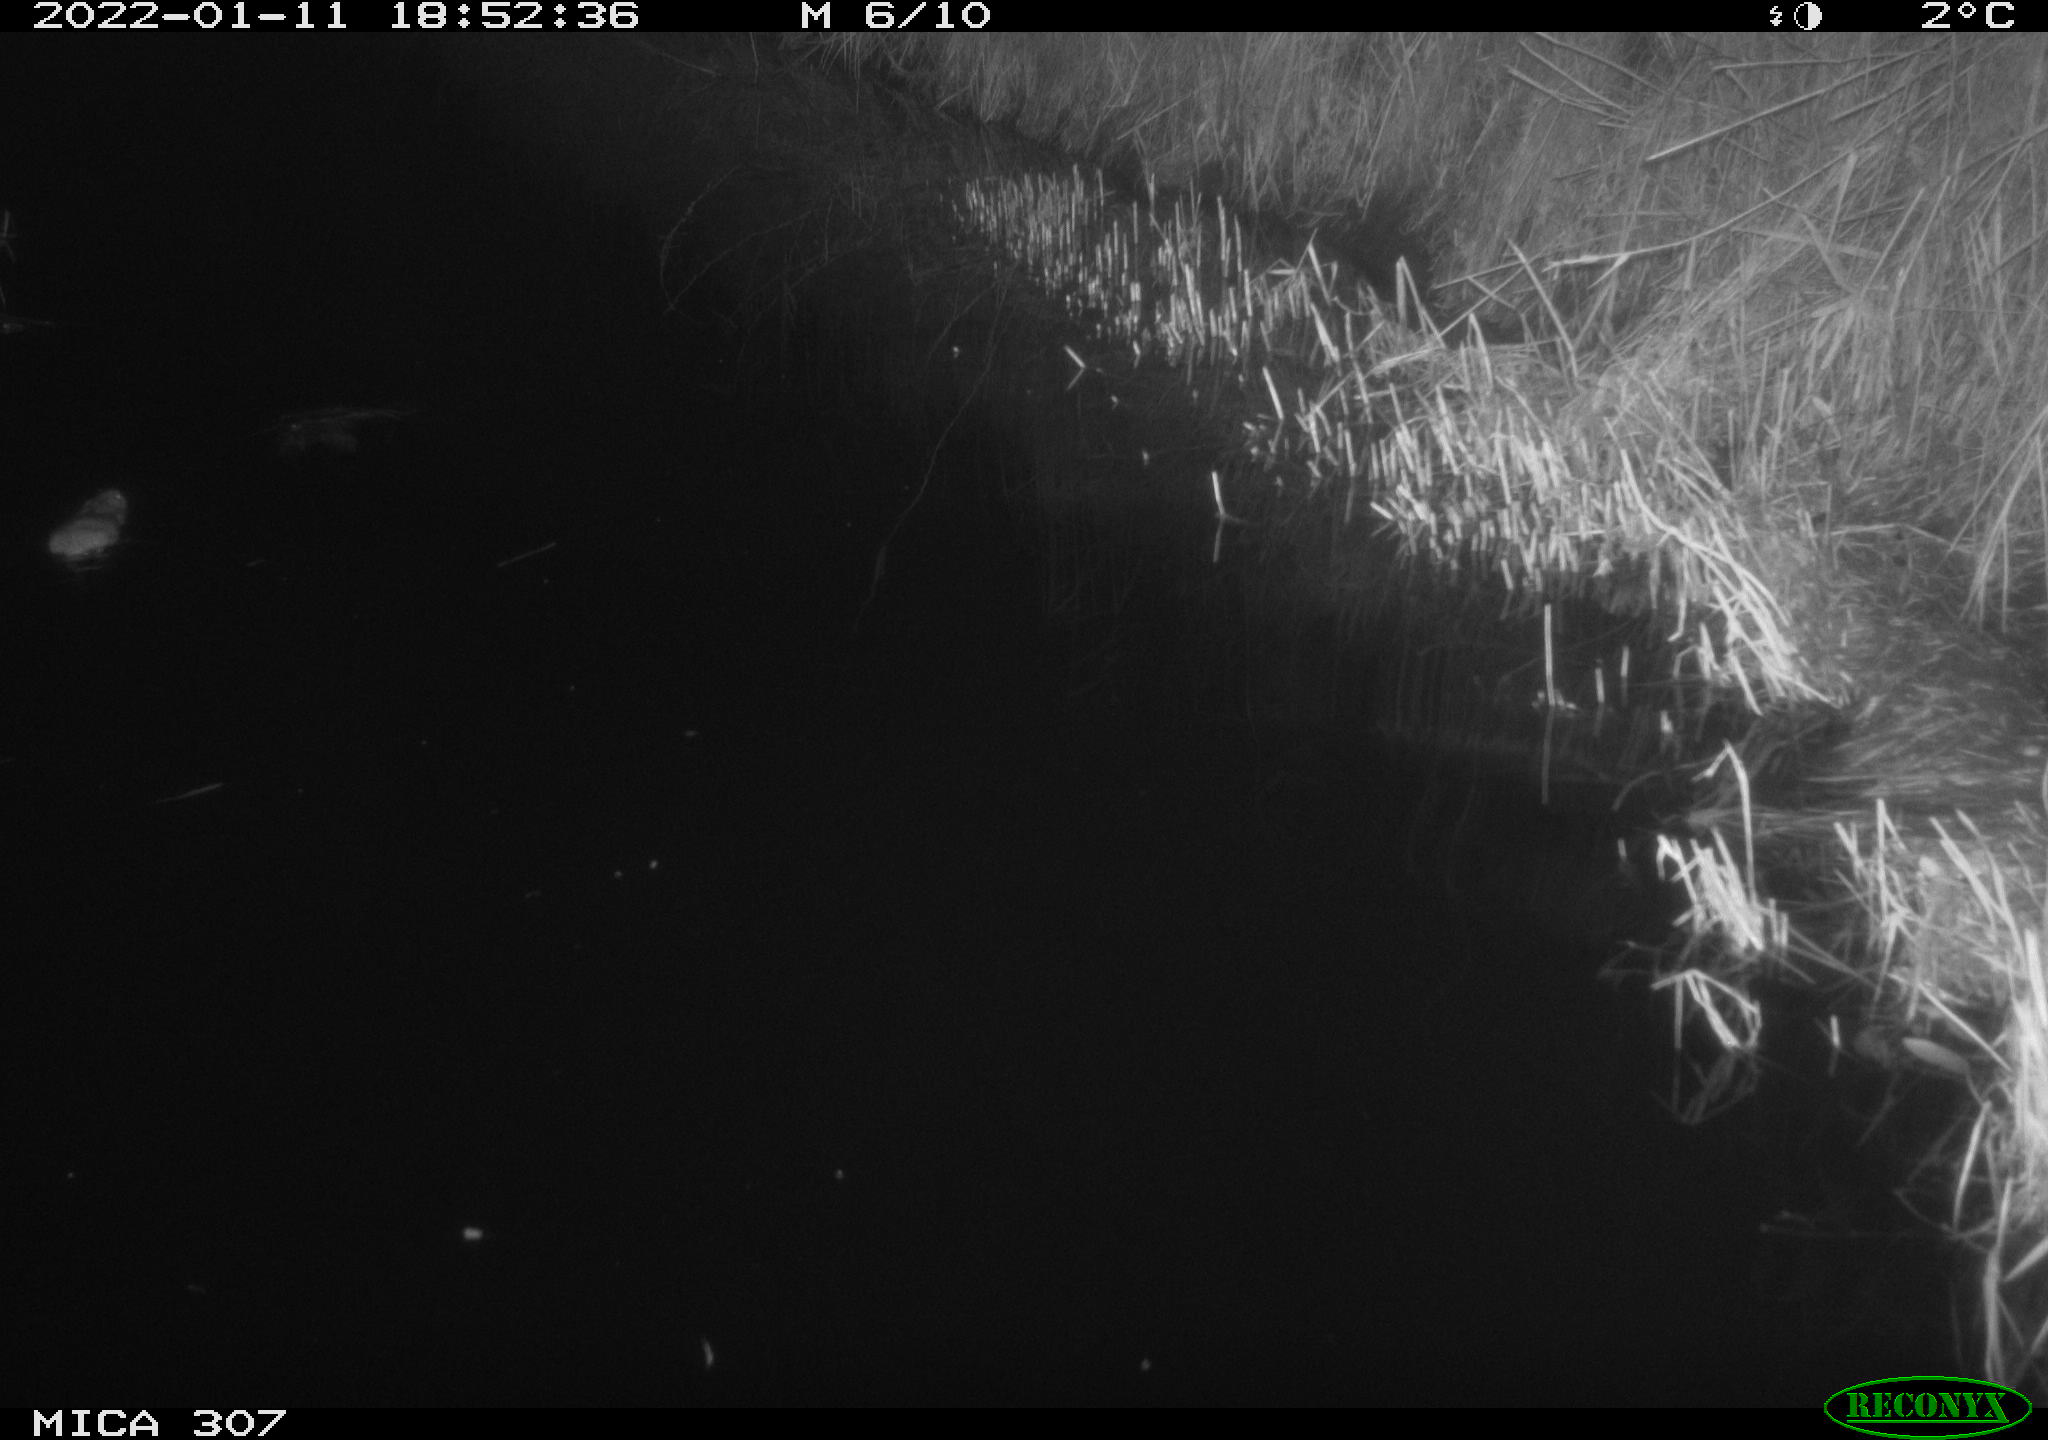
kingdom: Animalia
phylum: Chordata
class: Mammalia
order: Rodentia
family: Muridae
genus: Rattus
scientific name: Rattus norvegicus
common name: Brown rat
